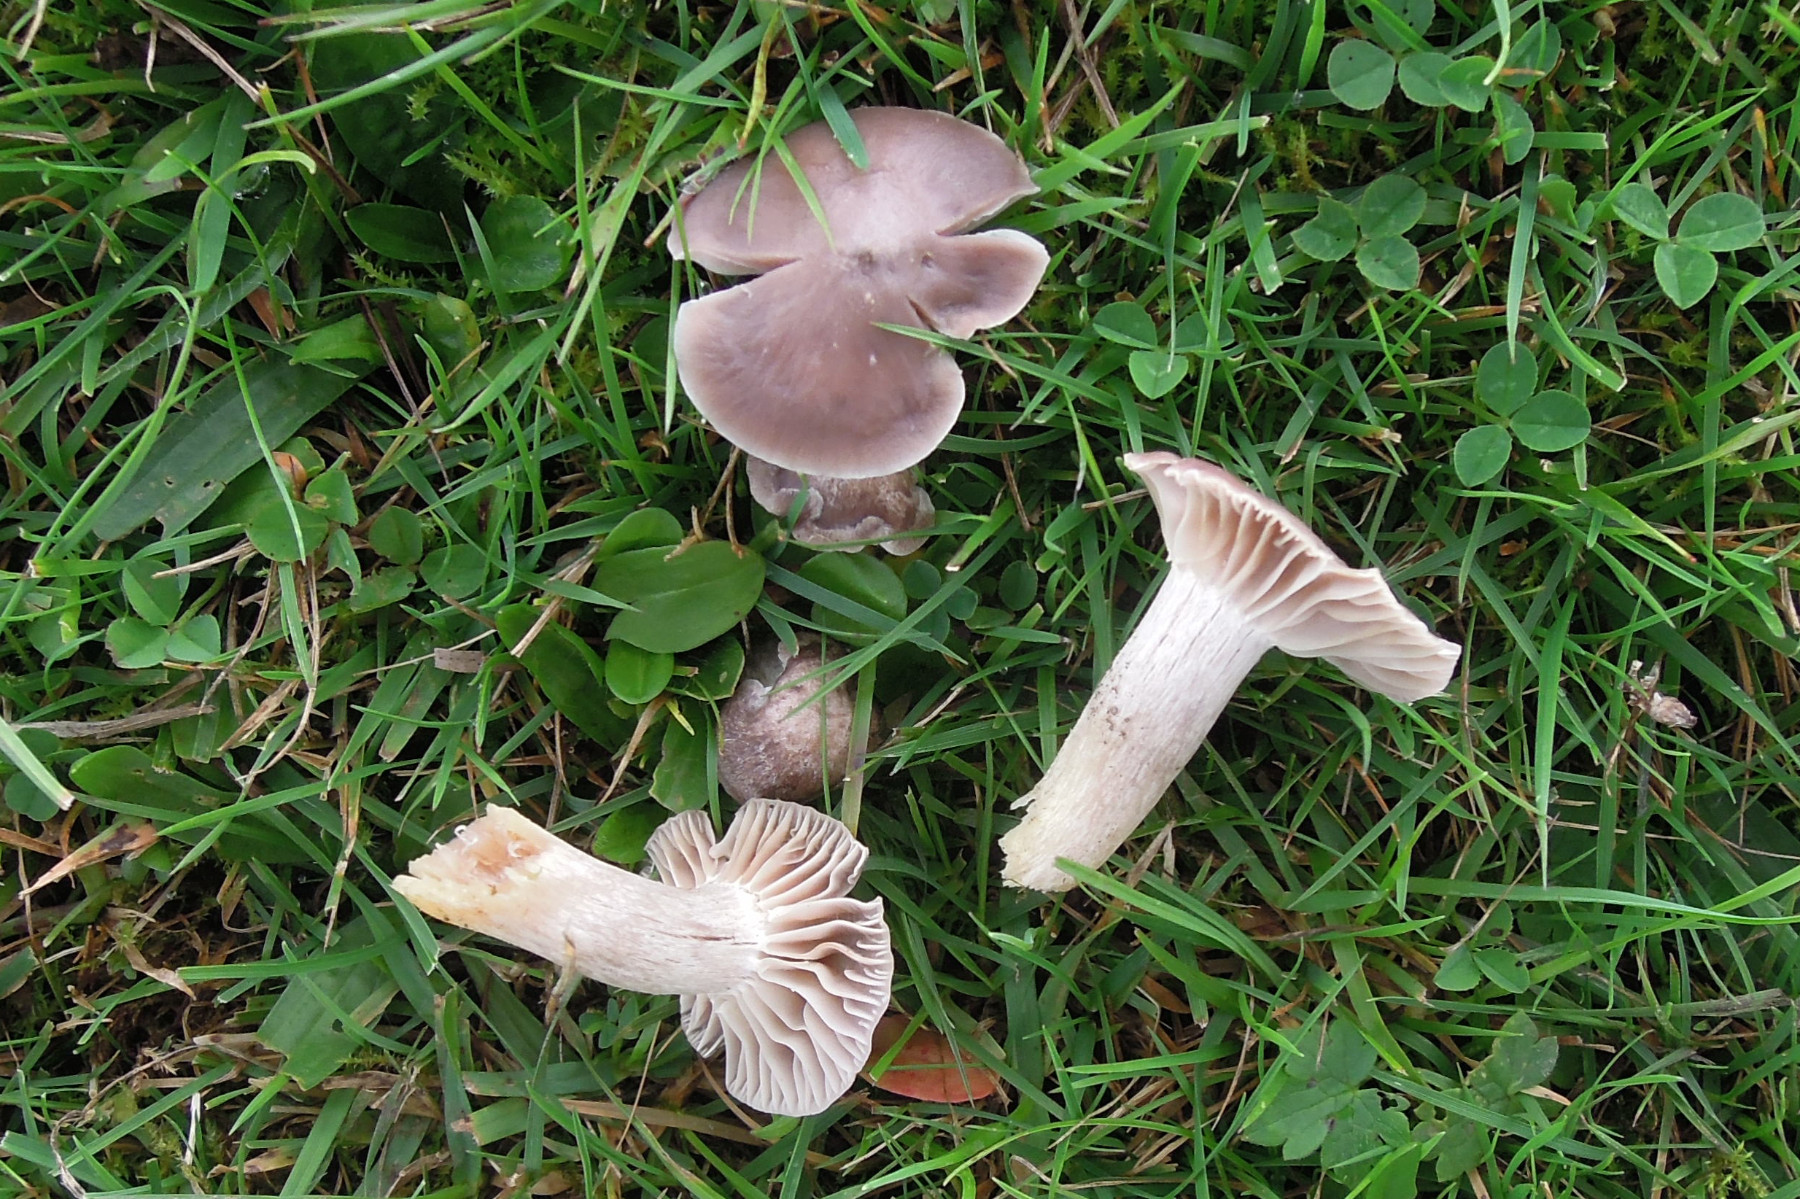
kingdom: Fungi
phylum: Basidiomycota
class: Agaricomycetes
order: Agaricales
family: Hygrophoraceae
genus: Cuphophyllus
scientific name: Cuphophyllus flavipes
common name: gulfodet vokshat
